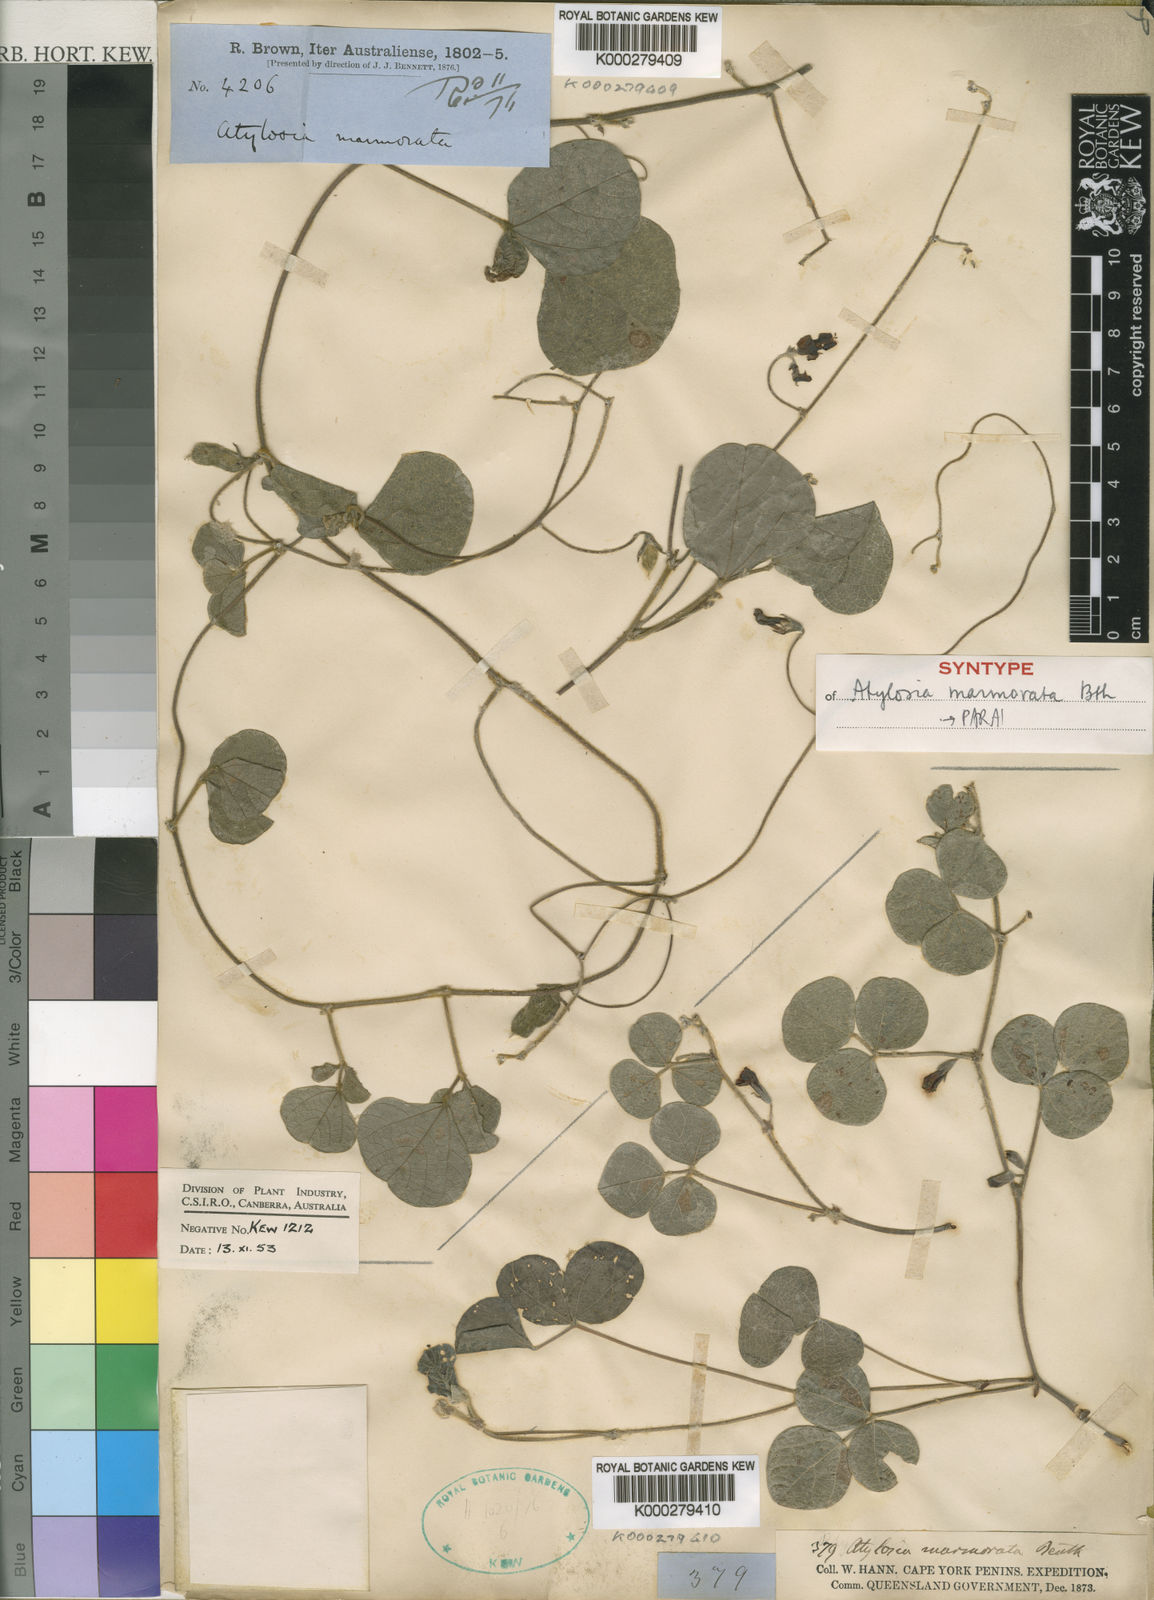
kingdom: Plantae
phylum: Tracheophyta
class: Magnoliopsida
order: Fabales
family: Fabaceae
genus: Cajanus
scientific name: Cajanus marmoratus
